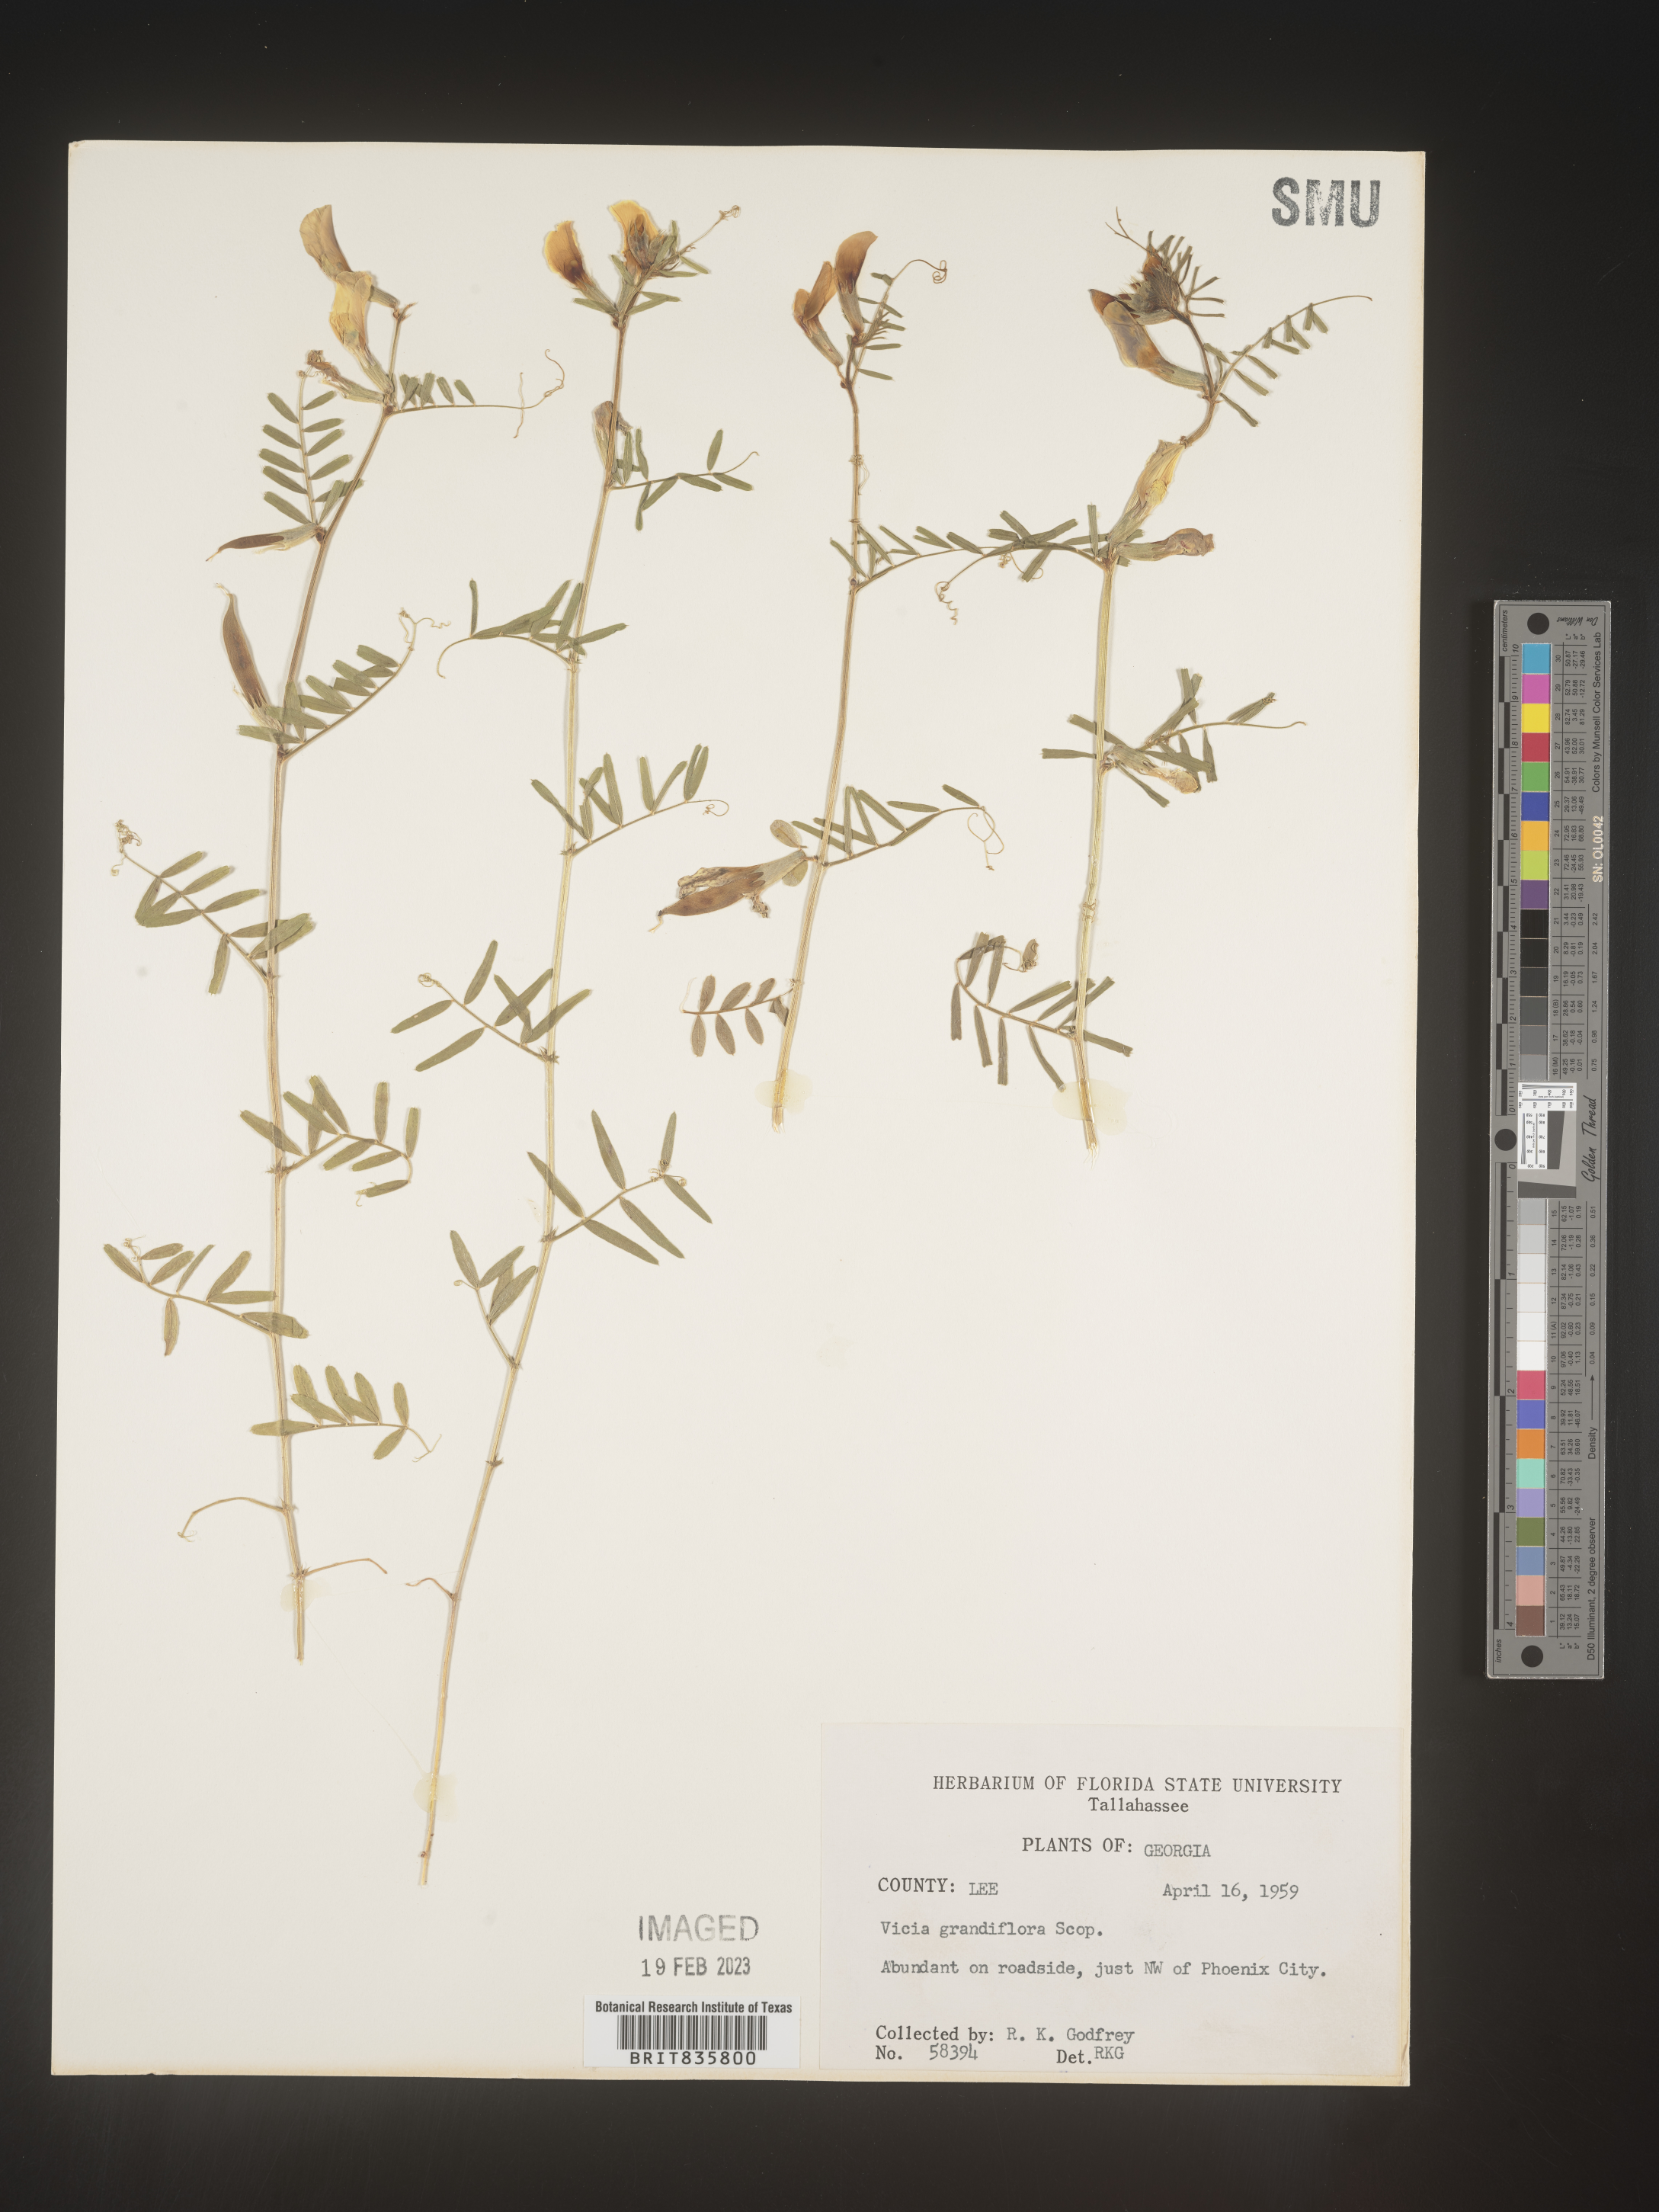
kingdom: Plantae
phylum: Tracheophyta
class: Magnoliopsida
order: Fabales
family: Fabaceae
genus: Vicia
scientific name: Vicia grandiflora
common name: Large yellow vetch
